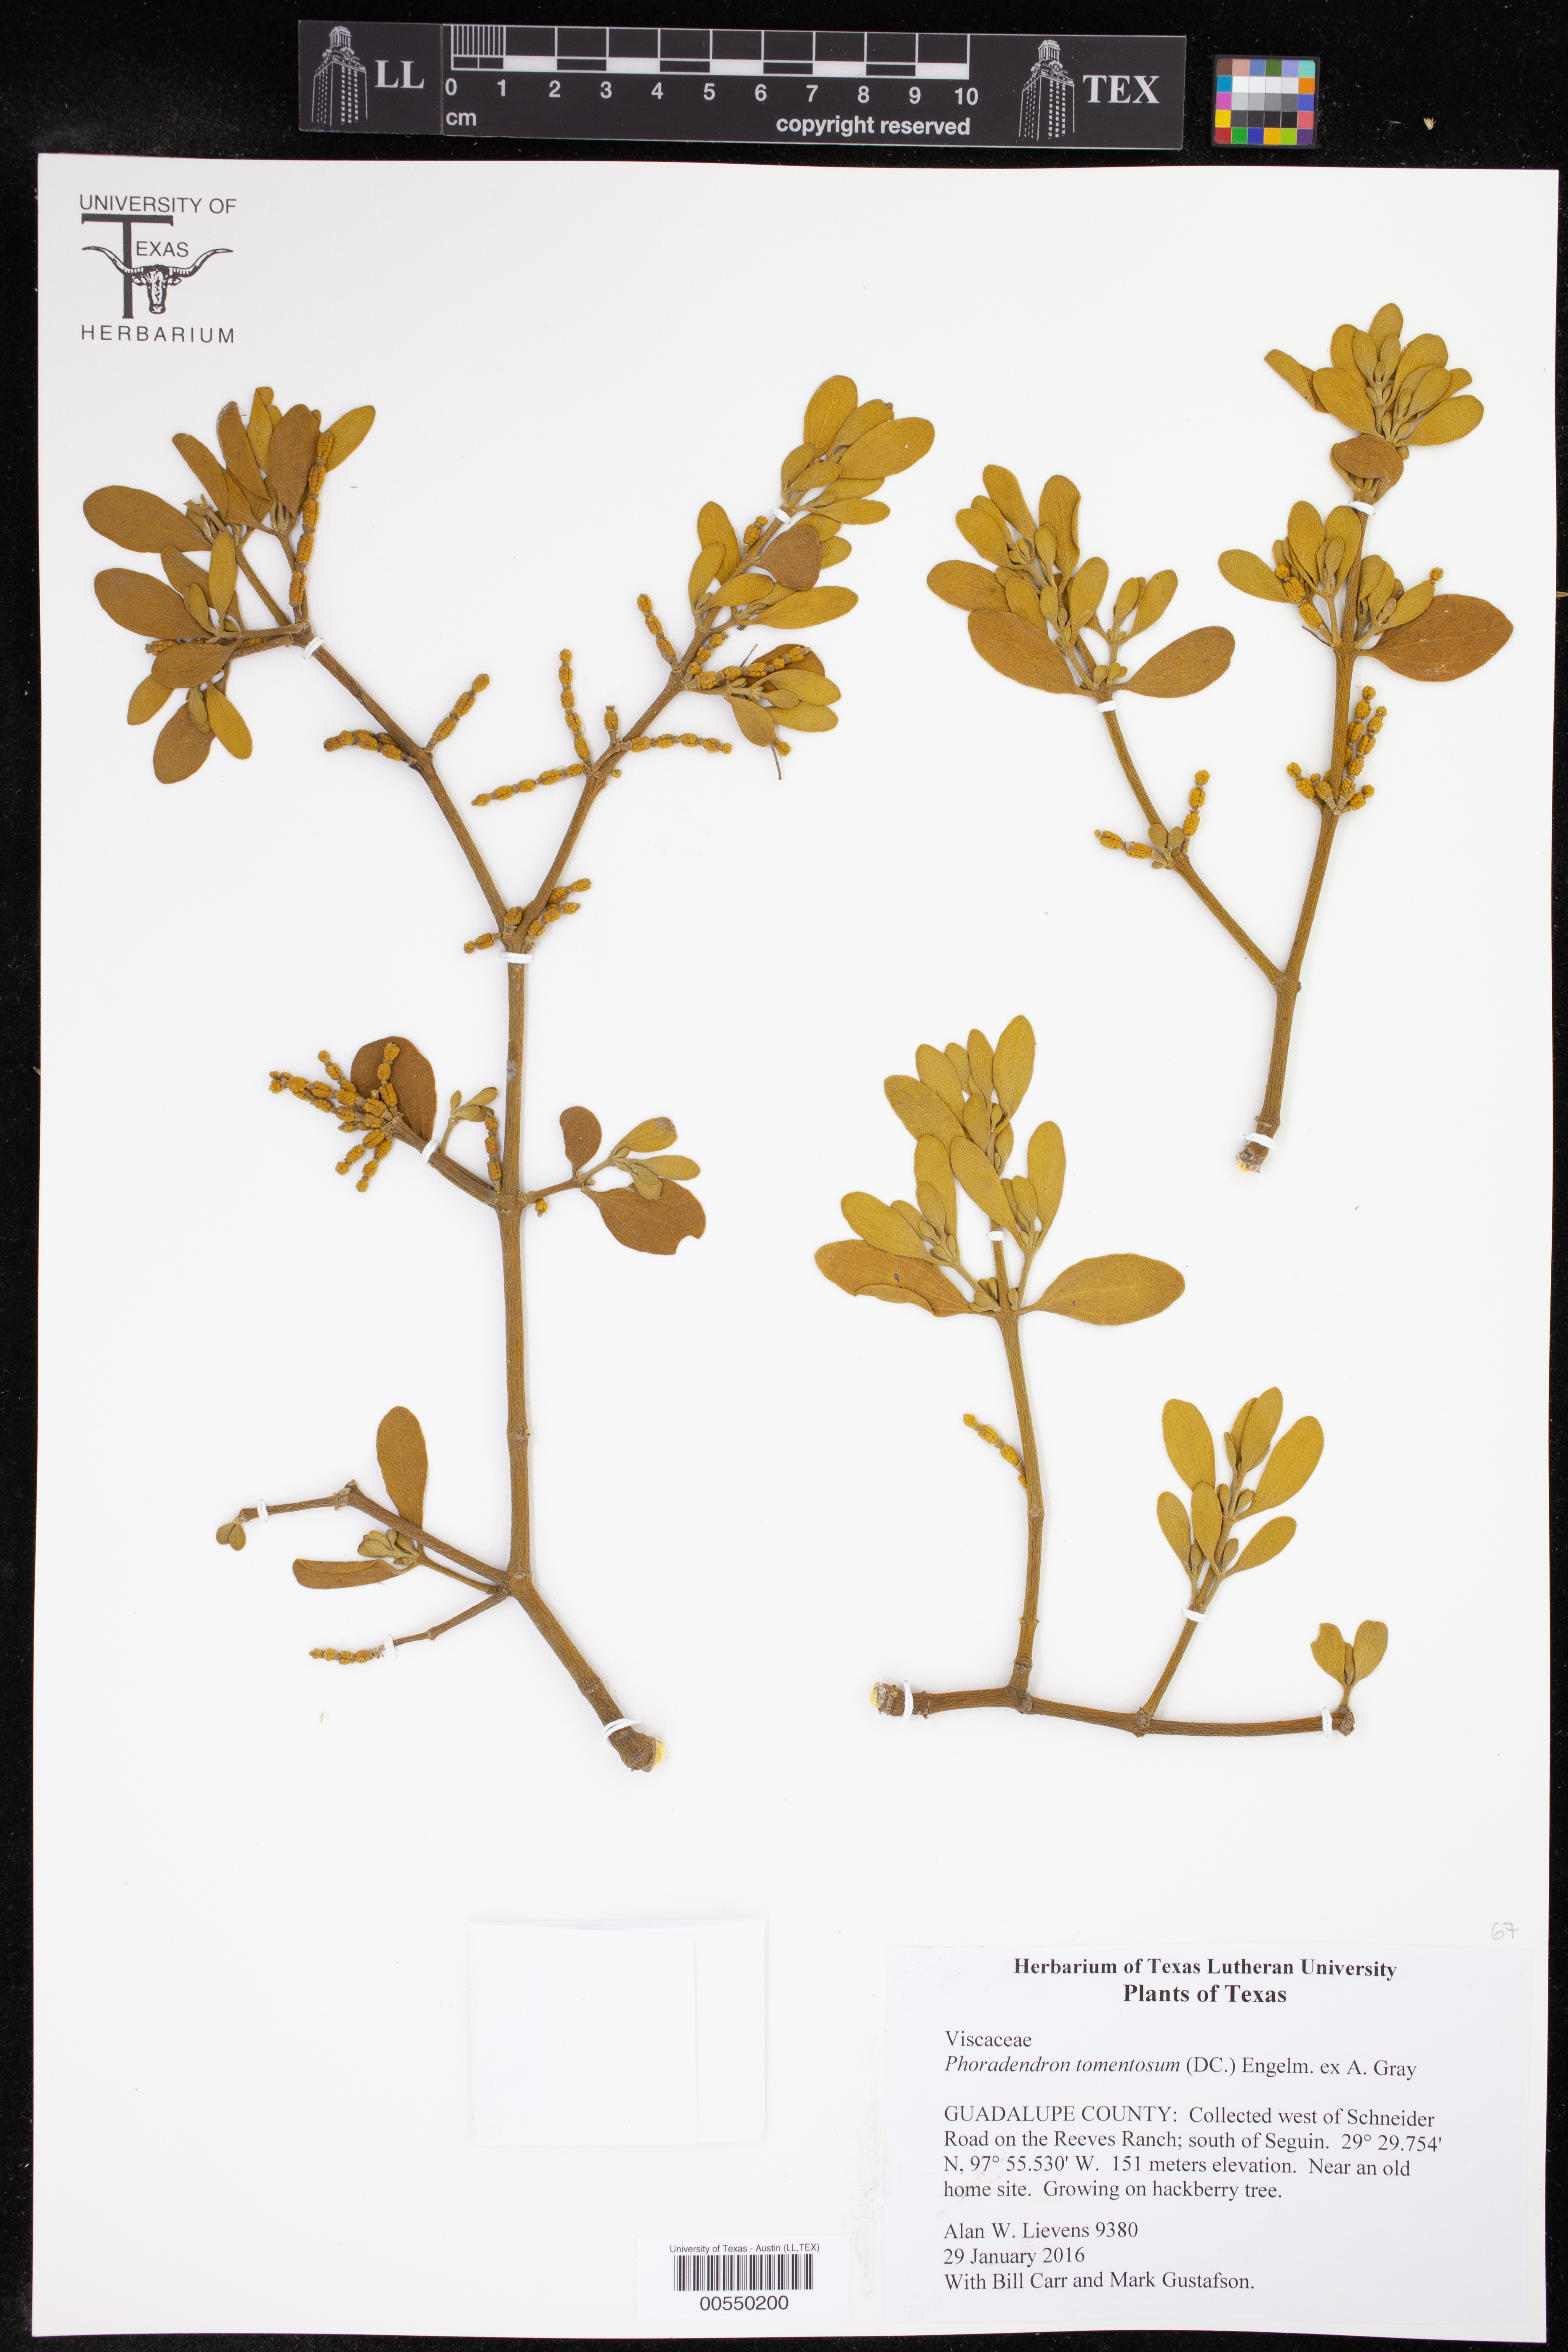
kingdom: Plantae
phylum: Tracheophyta
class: Magnoliopsida
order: Santalales
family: Viscaceae
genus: Phoradendron
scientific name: Phoradendron leucarpum
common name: Pacific mistletoe
